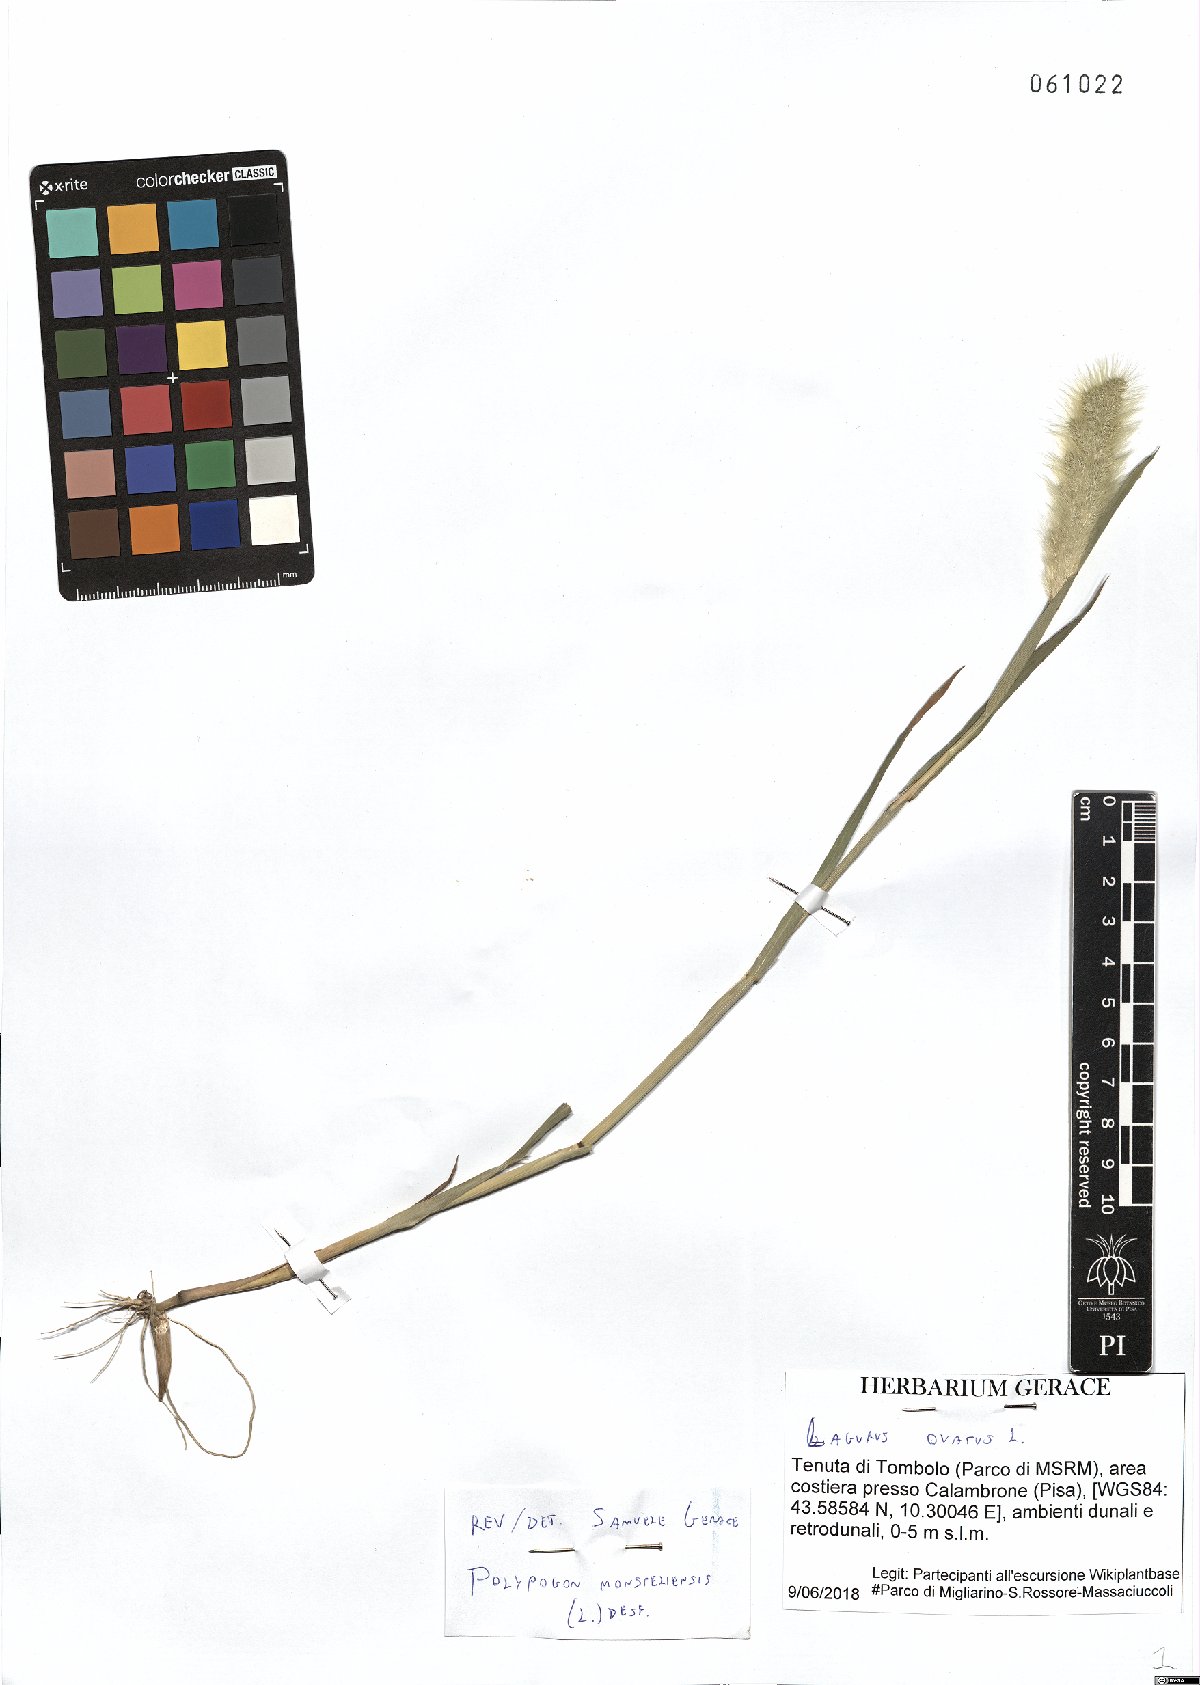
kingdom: Plantae
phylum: Tracheophyta
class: Liliopsida
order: Poales
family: Poaceae
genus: Polypogon
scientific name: Polypogon monspeliensis
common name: Annual rabbitsfoot grass
